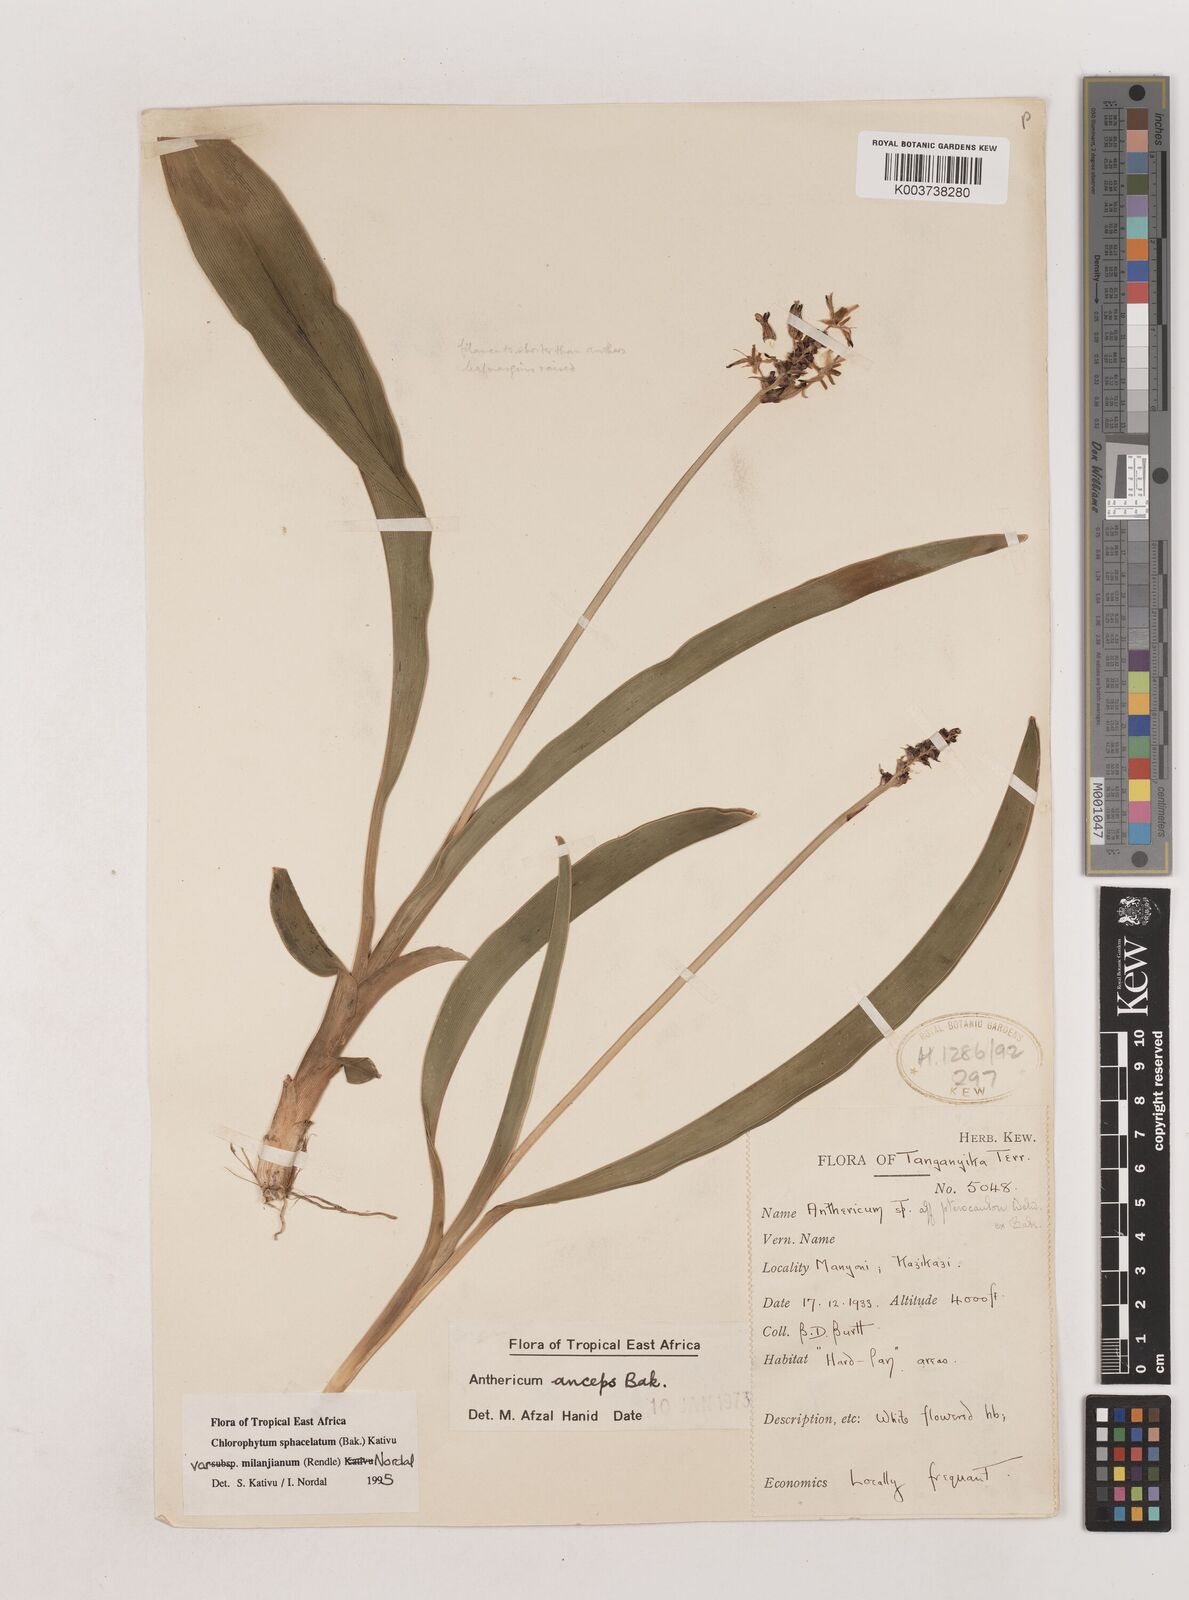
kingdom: Plantae
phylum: Tracheophyta
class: Liliopsida
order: Asparagales
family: Asparagaceae
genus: Chlorophytum
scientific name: Chlorophytum sphacelatum
